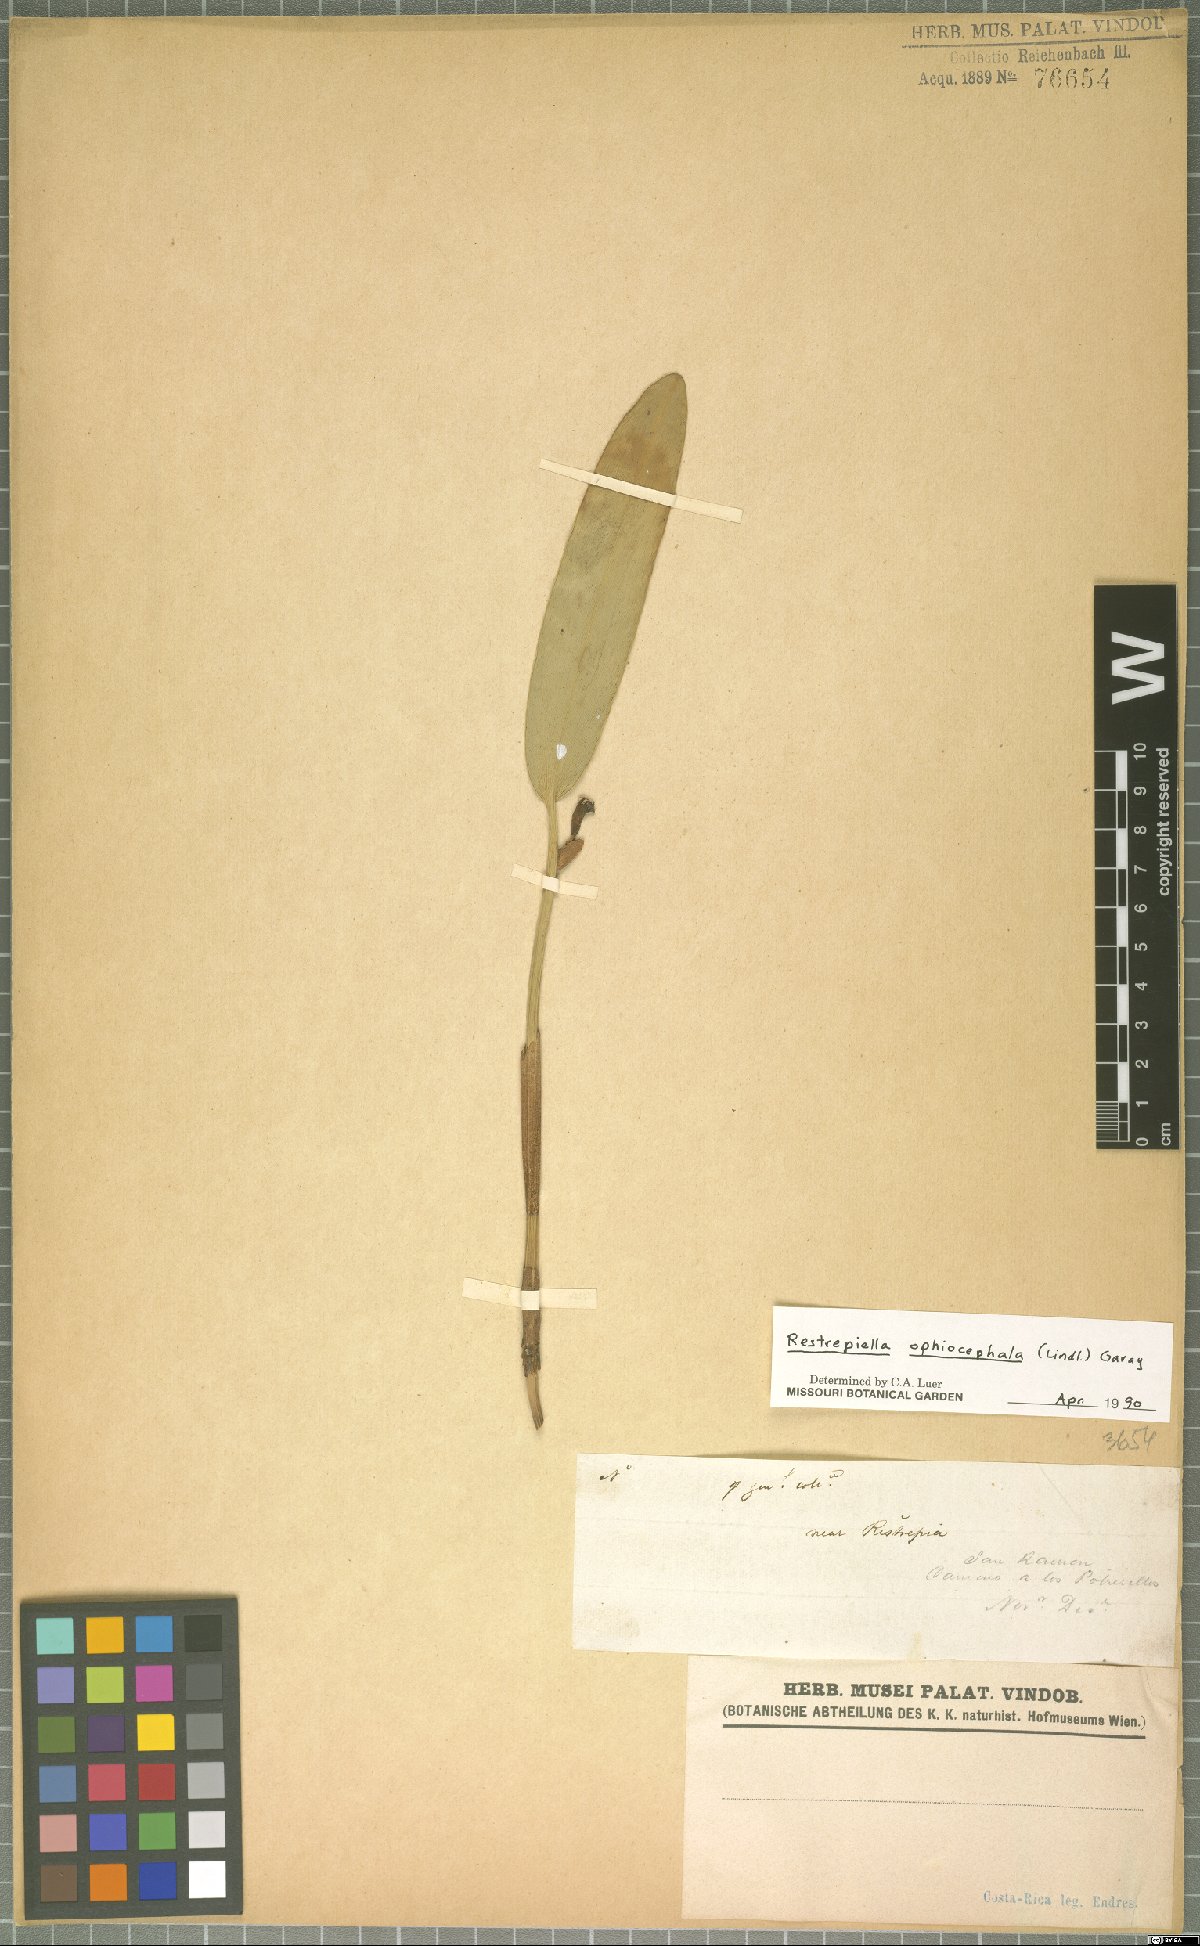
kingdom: Plantae
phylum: Tracheophyta
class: Liliopsida
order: Asparagales
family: Orchidaceae
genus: Restrepiella
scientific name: Restrepiella ophiocephala
